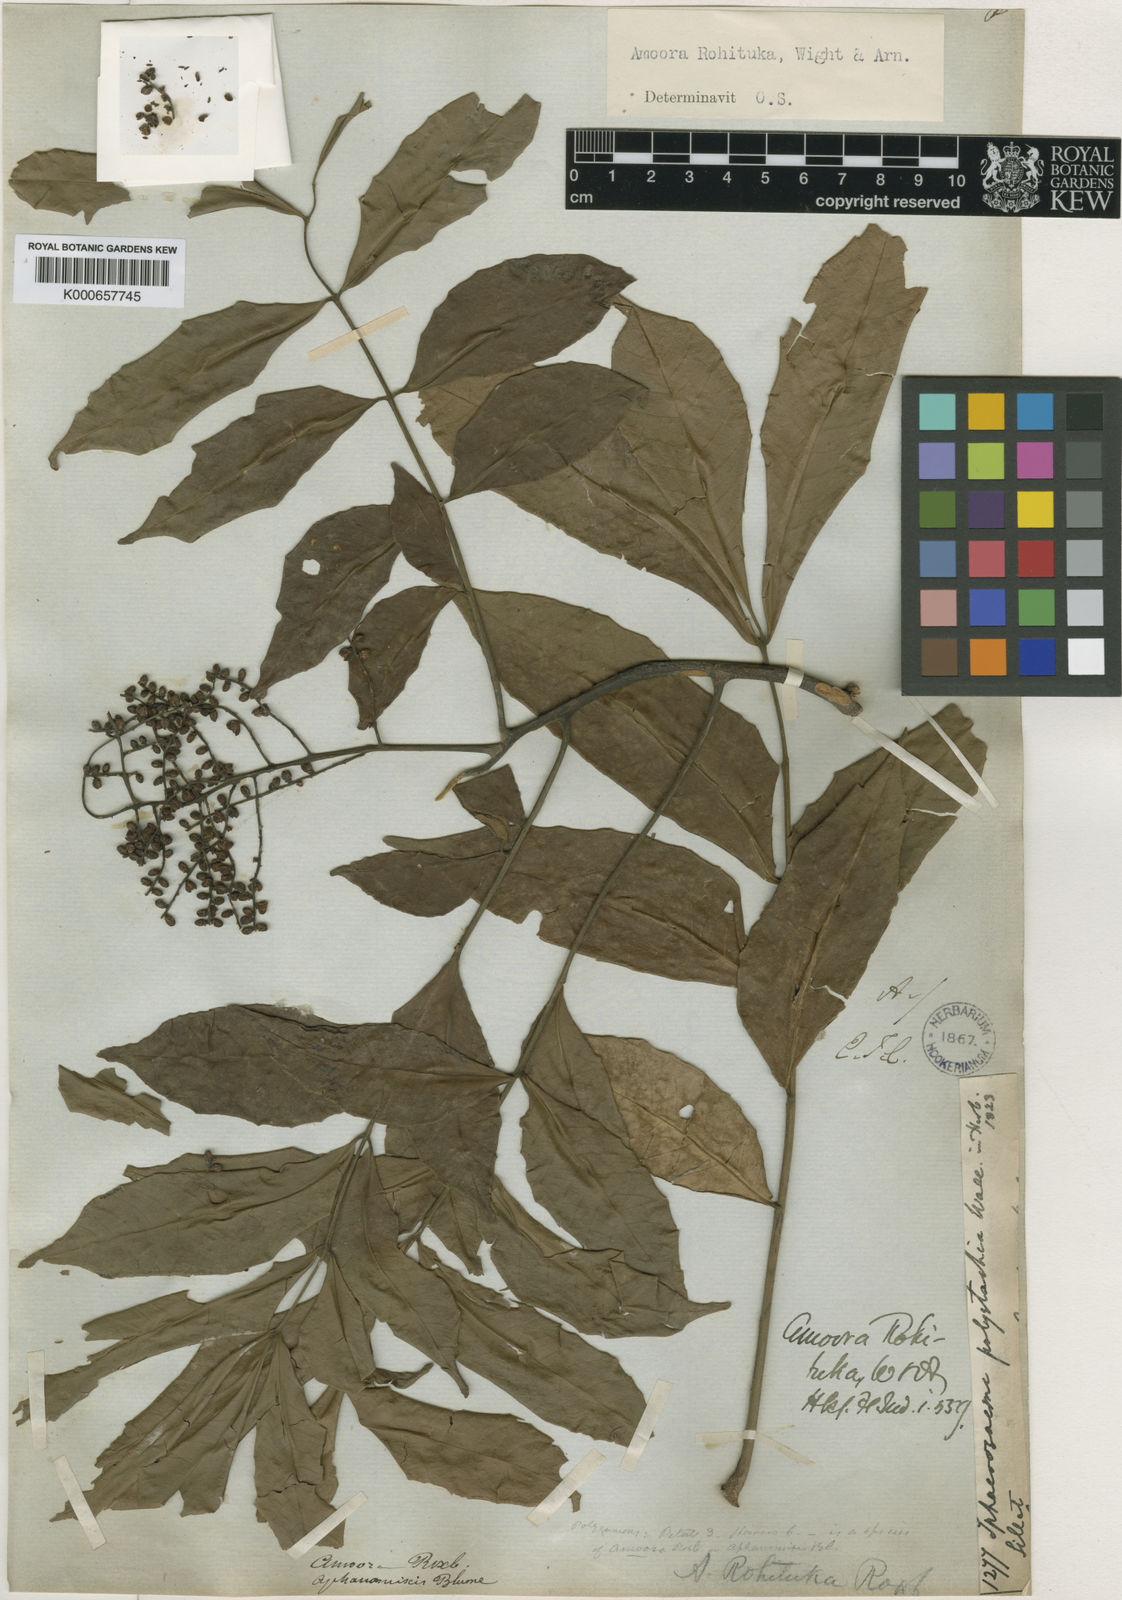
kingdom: Plantae
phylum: Tracheophyta
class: Magnoliopsida
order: Sapindales
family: Meliaceae
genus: Aphanamixis
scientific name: Aphanamixis polystachya
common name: Pithraj tree
